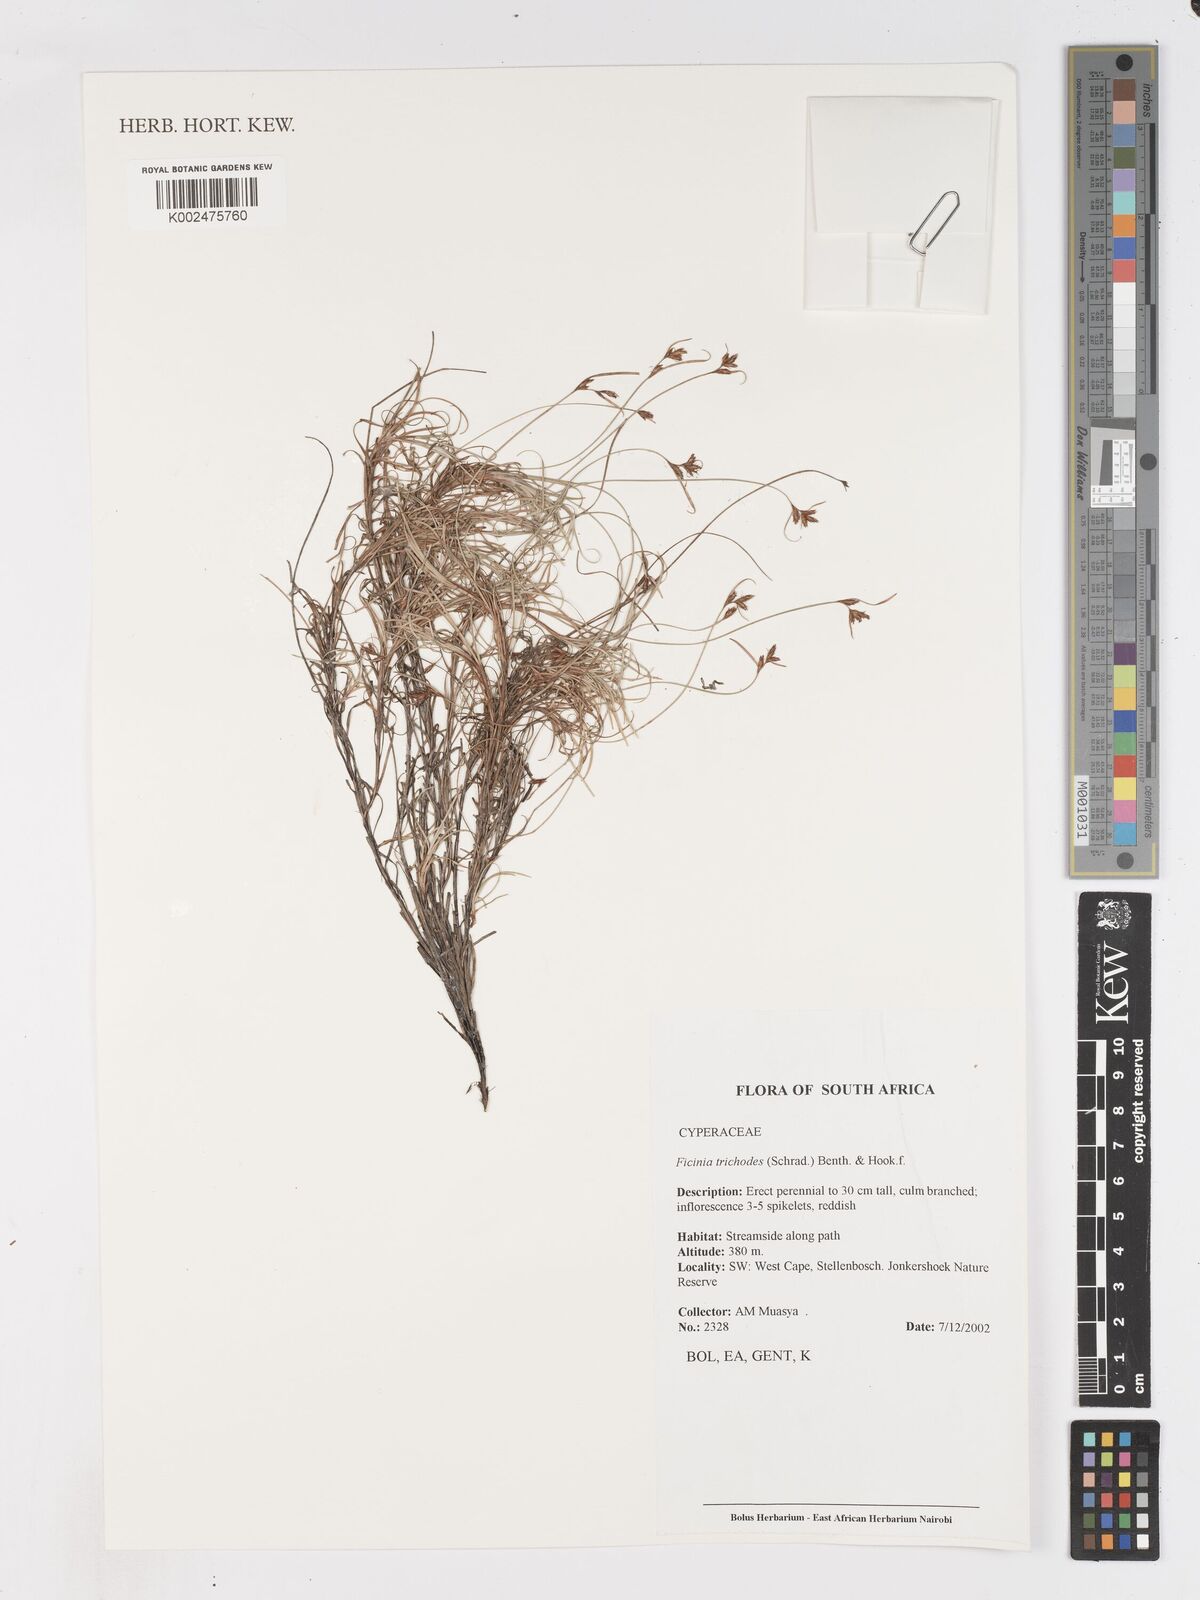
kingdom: Plantae
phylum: Tracheophyta
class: Liliopsida
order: Poales
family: Cyperaceae
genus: Ficinia
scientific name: Ficinia ramosissima
